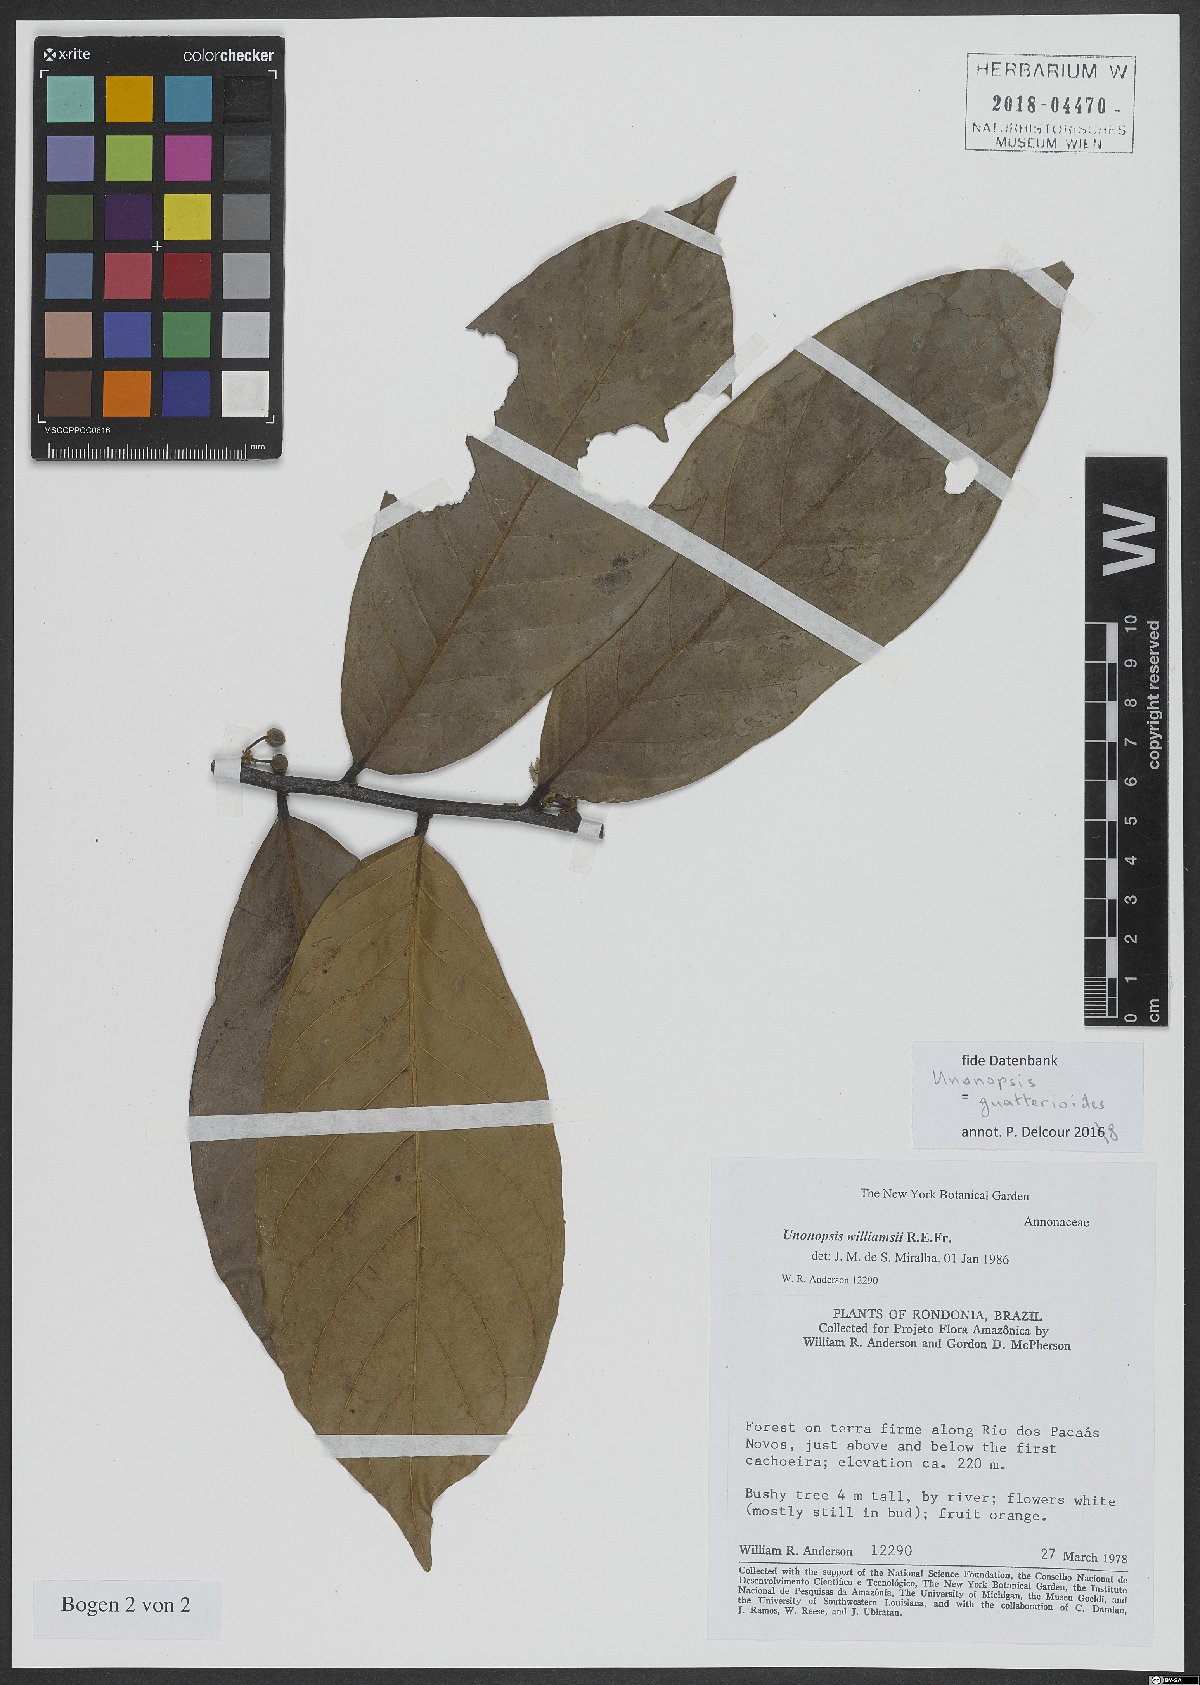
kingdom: Plantae
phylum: Tracheophyta
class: Magnoliopsida
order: Magnoliales
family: Annonaceae
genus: Unonopsis
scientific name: Unonopsis guatterioides
